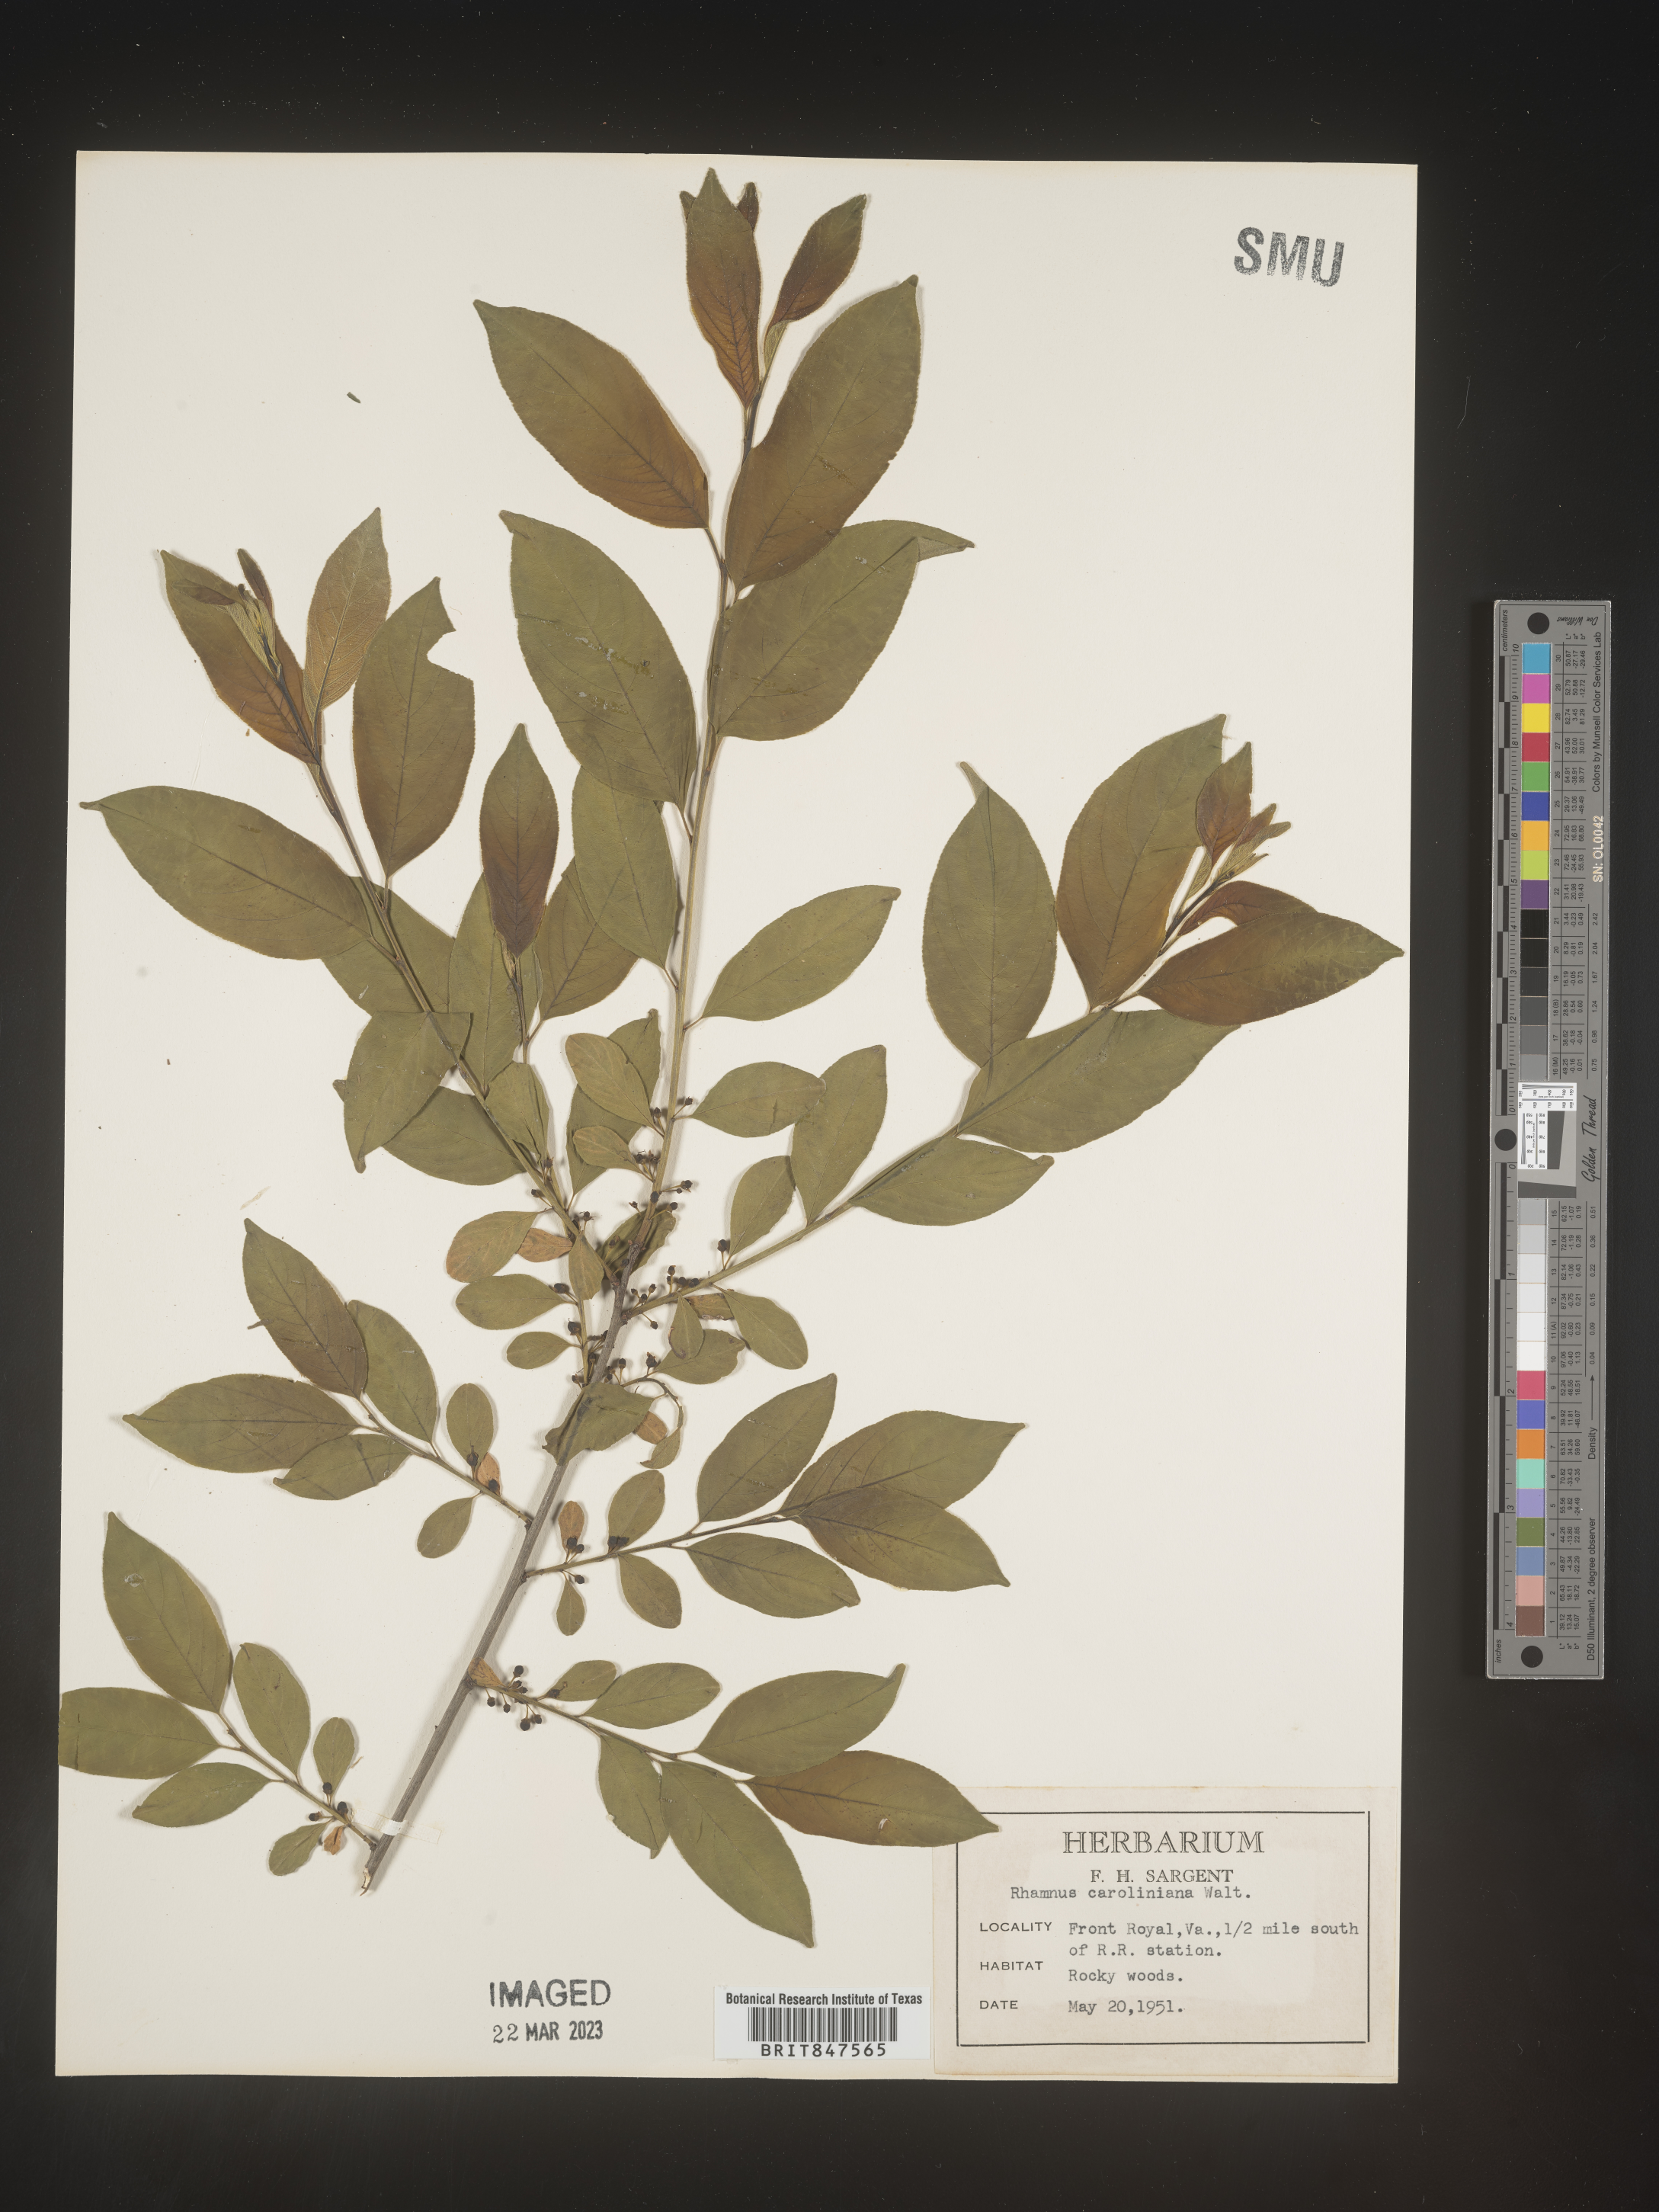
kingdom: Plantae
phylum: Tracheophyta
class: Magnoliopsida
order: Rosales
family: Rhamnaceae
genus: Frangula
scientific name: Frangula caroliniana
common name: Carolina buckthorn
